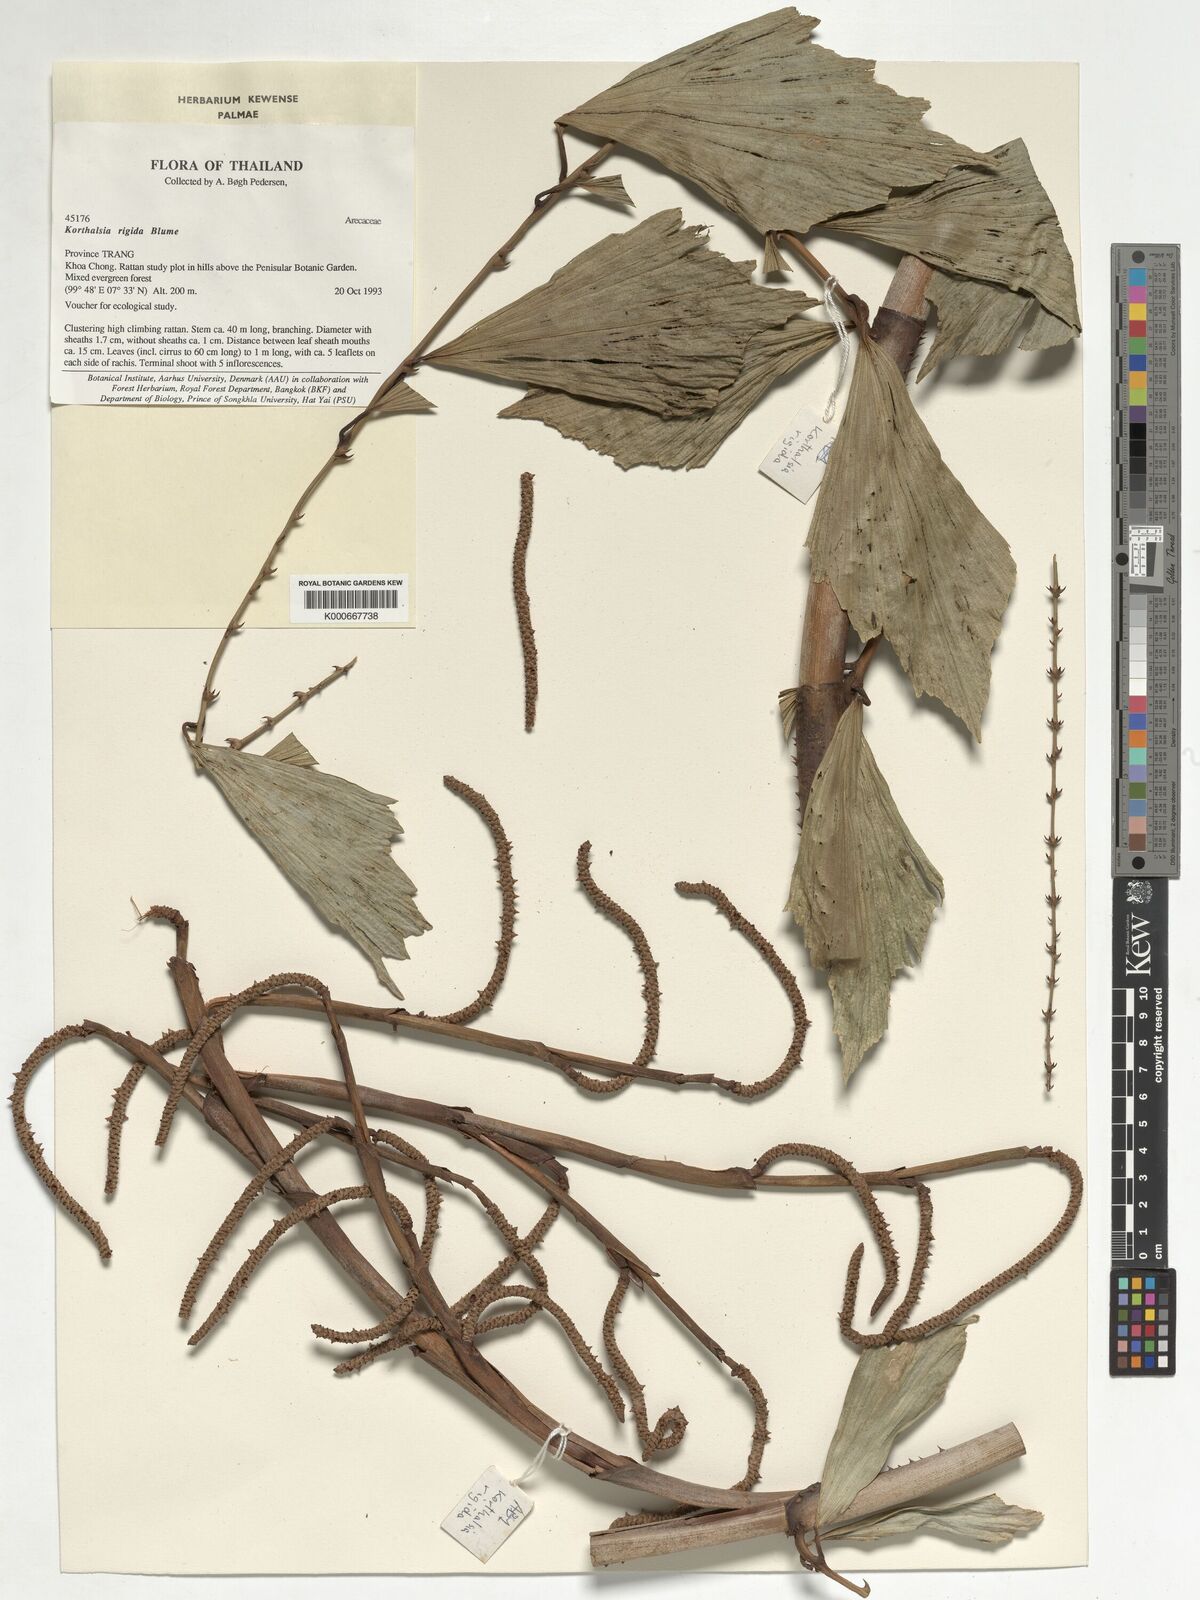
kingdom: Plantae
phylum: Tracheophyta
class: Liliopsida
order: Arecales
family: Arecaceae
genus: Korthalsia
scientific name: Korthalsia rigida
